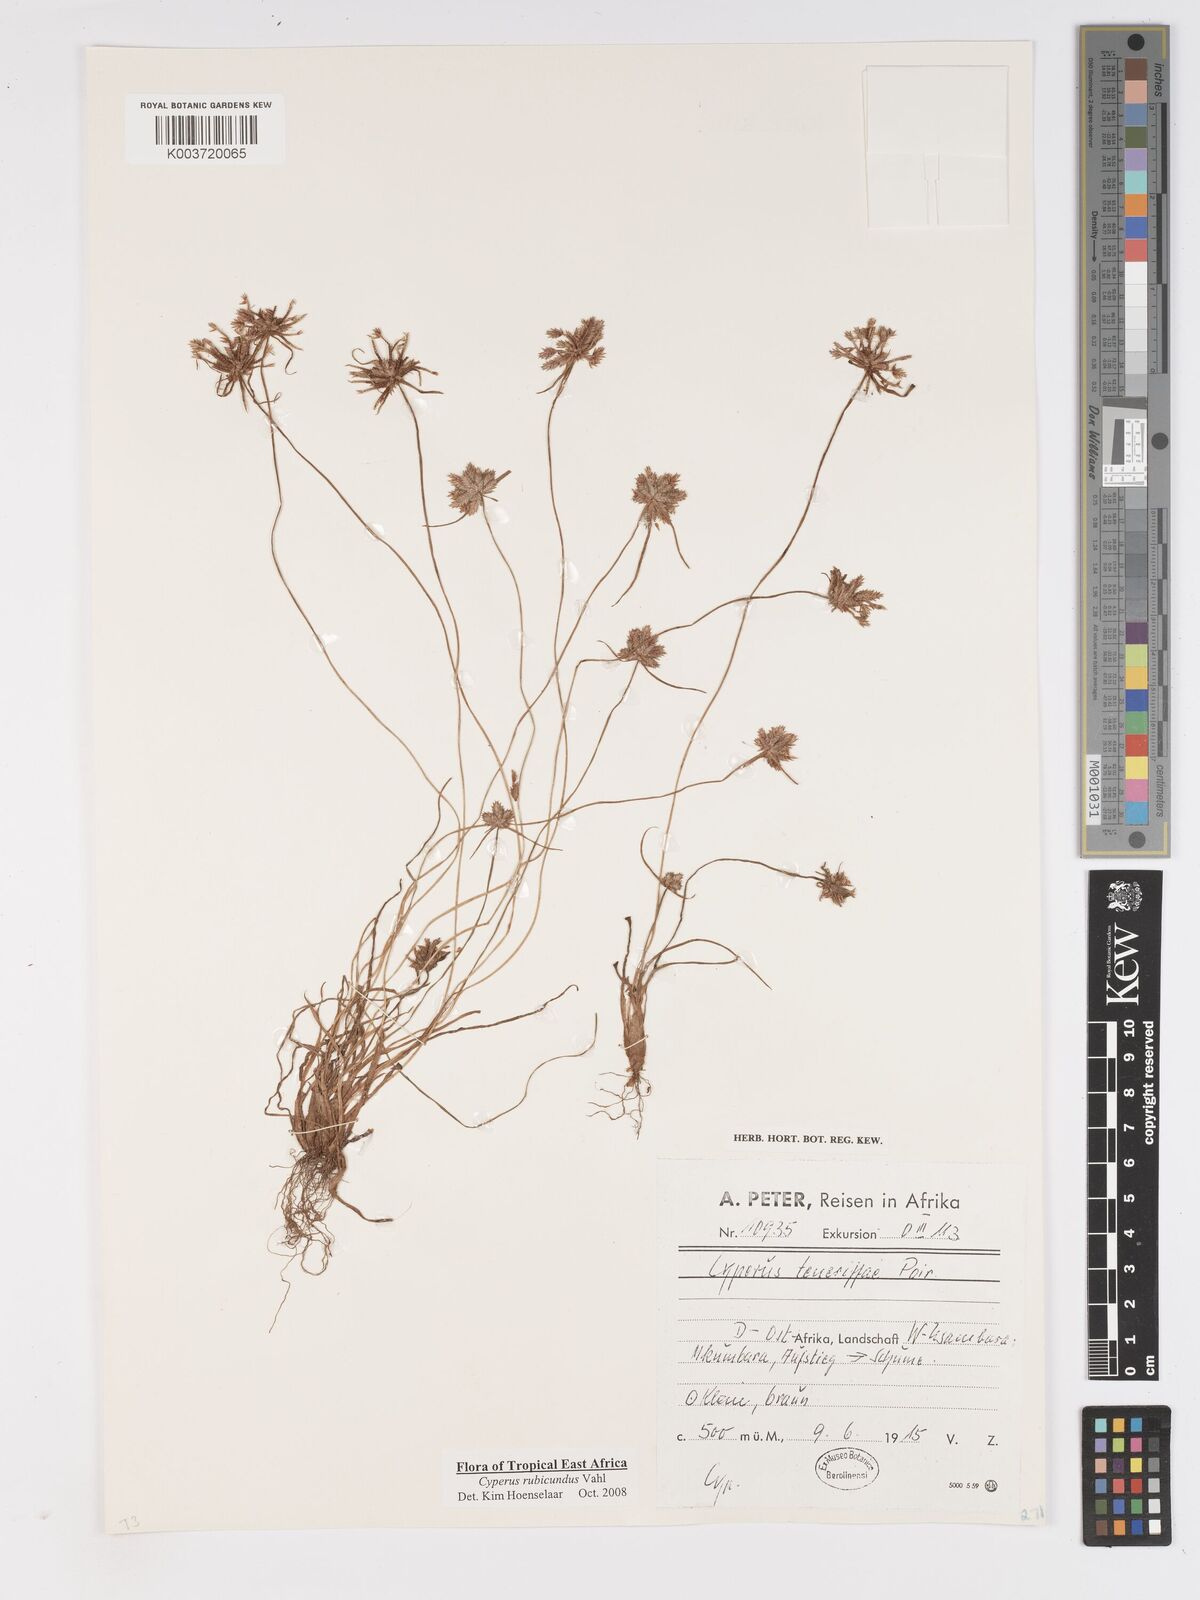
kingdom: Plantae
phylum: Tracheophyta
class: Liliopsida
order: Poales
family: Cyperaceae
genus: Cyperus
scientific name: Cyperus rubicundus
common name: Coco-grass
